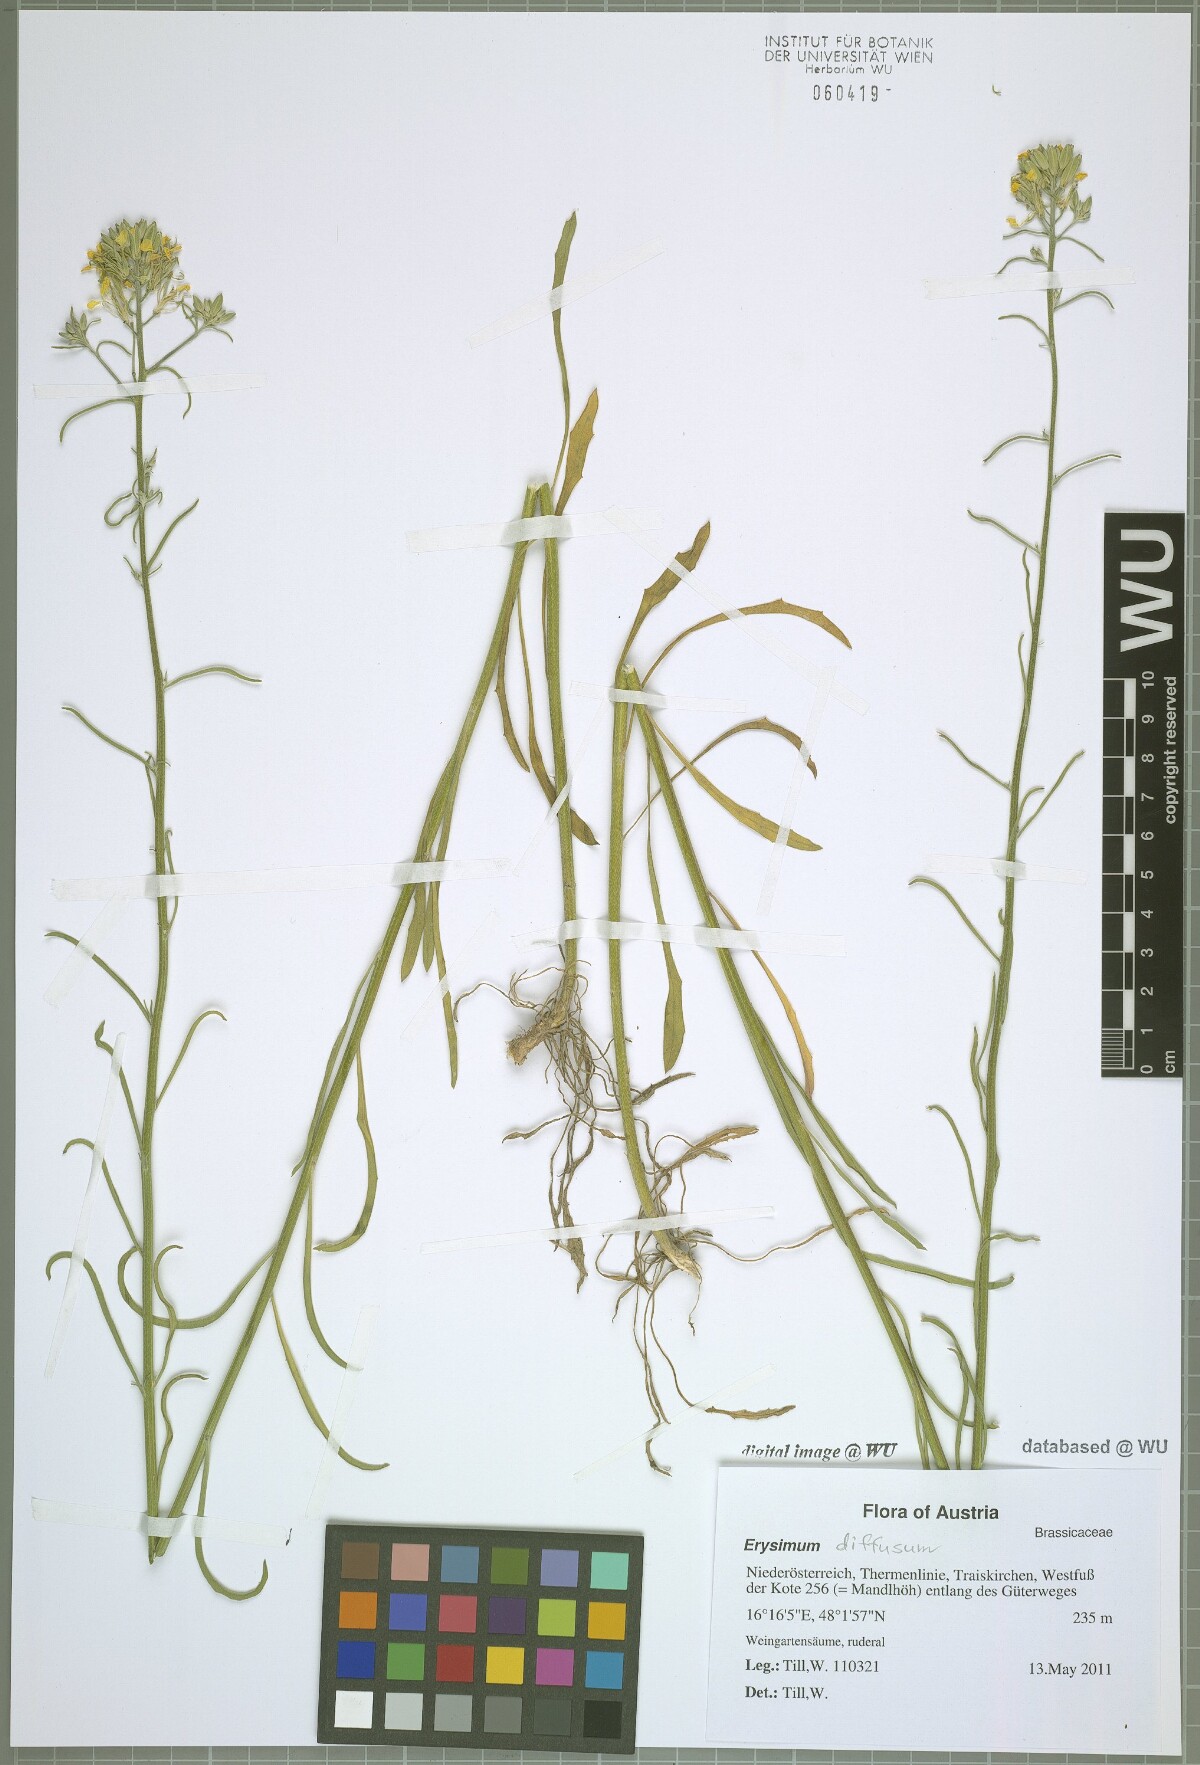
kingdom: Plantae
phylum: Tracheophyta
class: Magnoliopsida
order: Brassicales
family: Brassicaceae
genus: Erysimum
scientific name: Erysimum diffusum
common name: Diffuse wallflower
